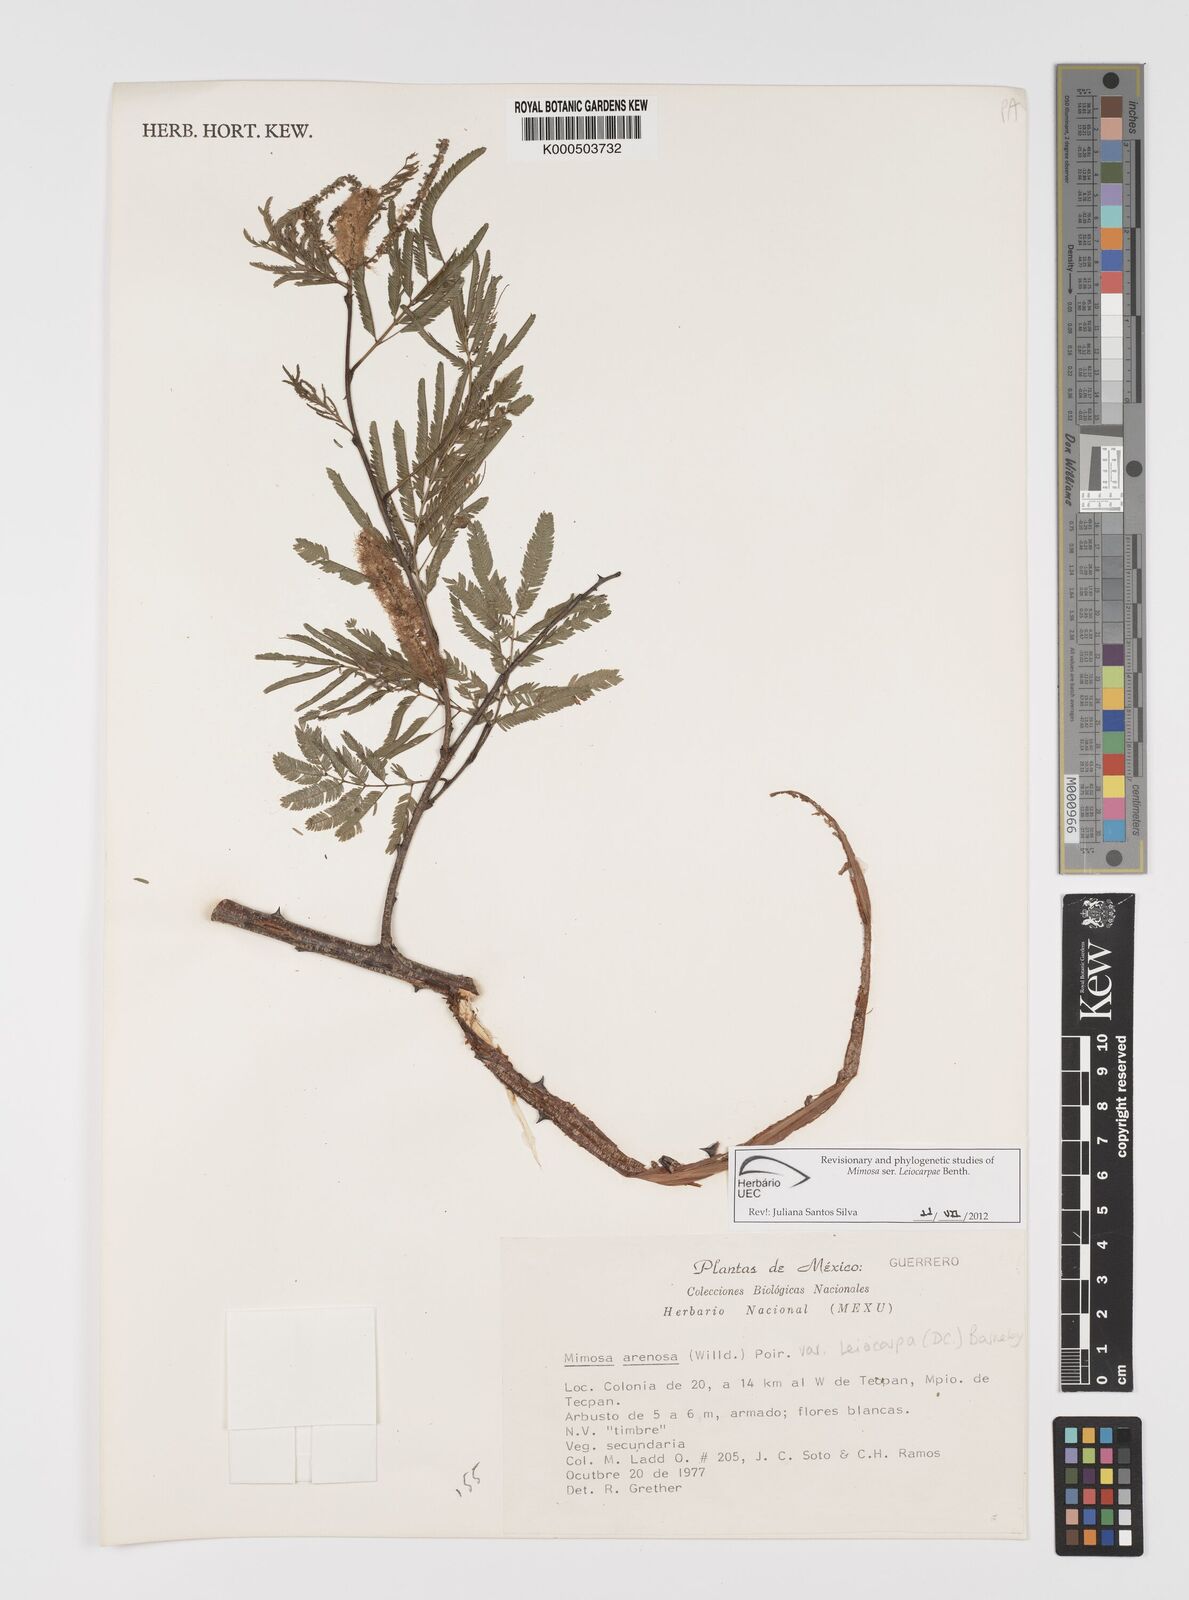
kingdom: Plantae
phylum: Tracheophyta
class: Magnoliopsida
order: Fabales
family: Fabaceae
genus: Mimosa
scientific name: Mimosa arenosa
